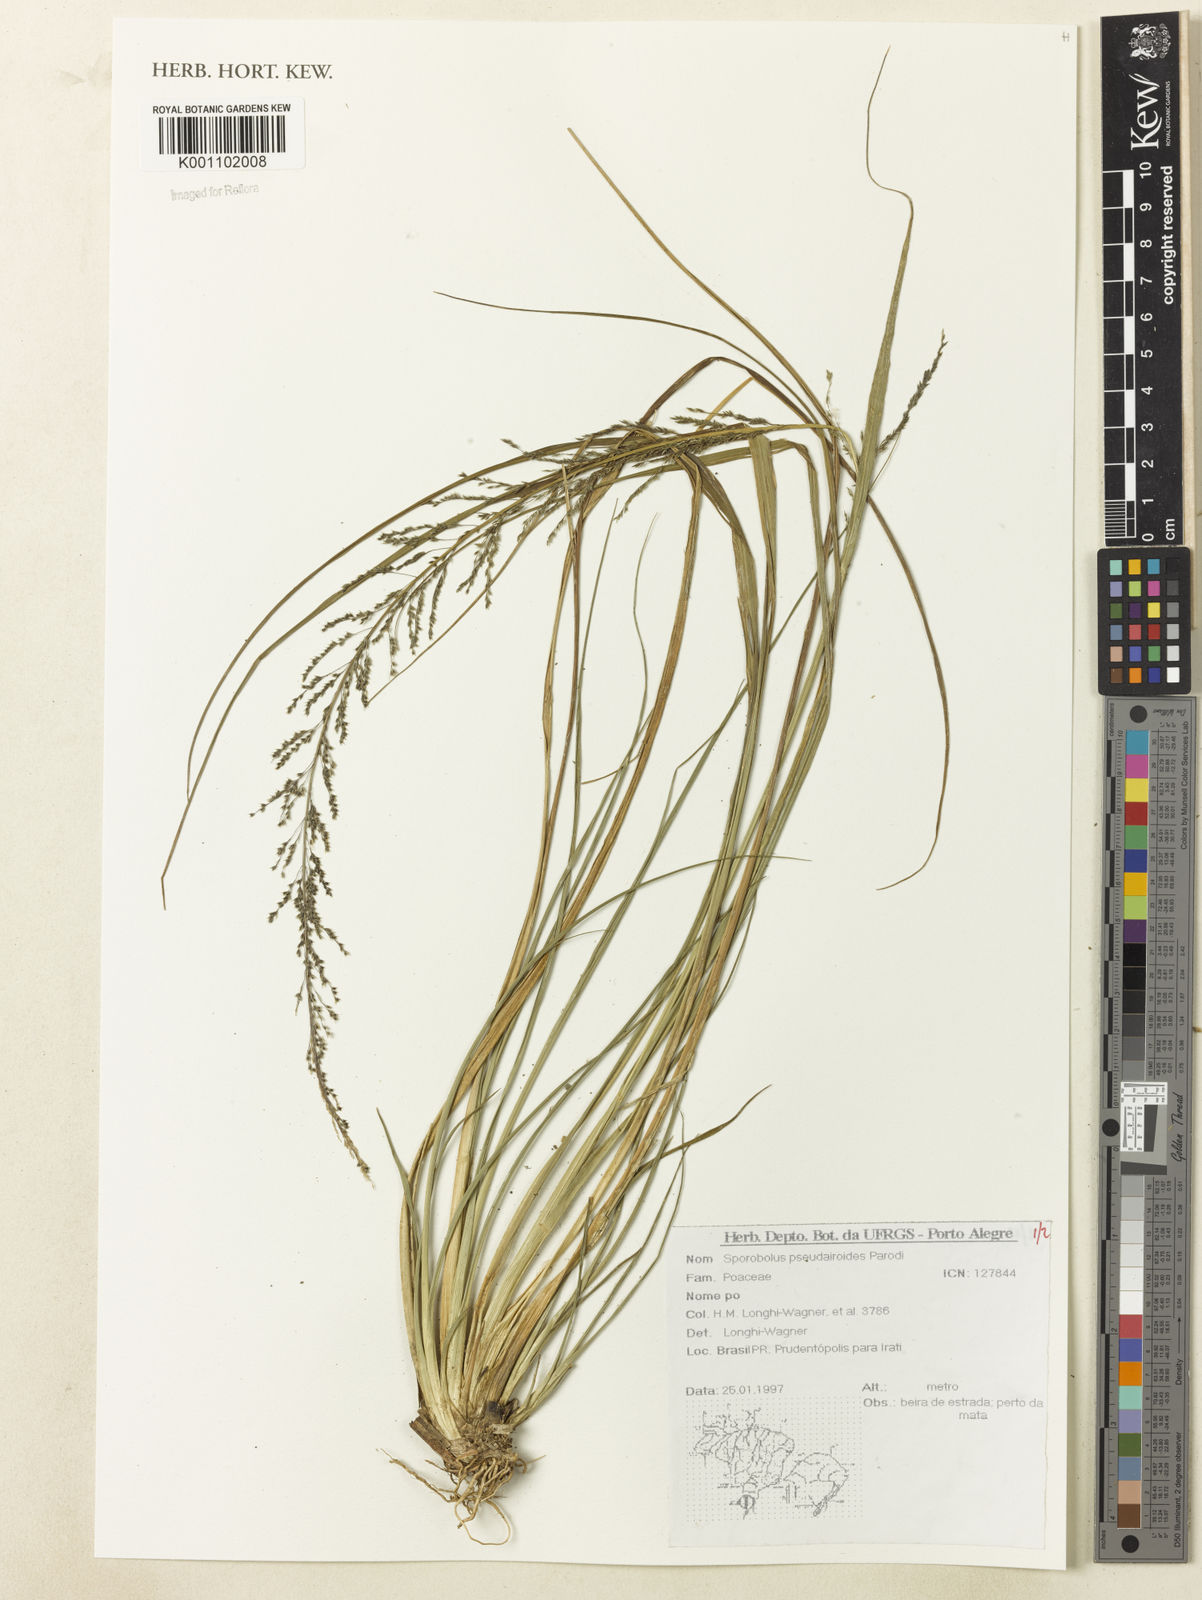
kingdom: Plantae
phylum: Tracheophyta
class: Liliopsida
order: Poales
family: Poaceae
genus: Sporobolus
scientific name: Sporobolus pseudairoides
